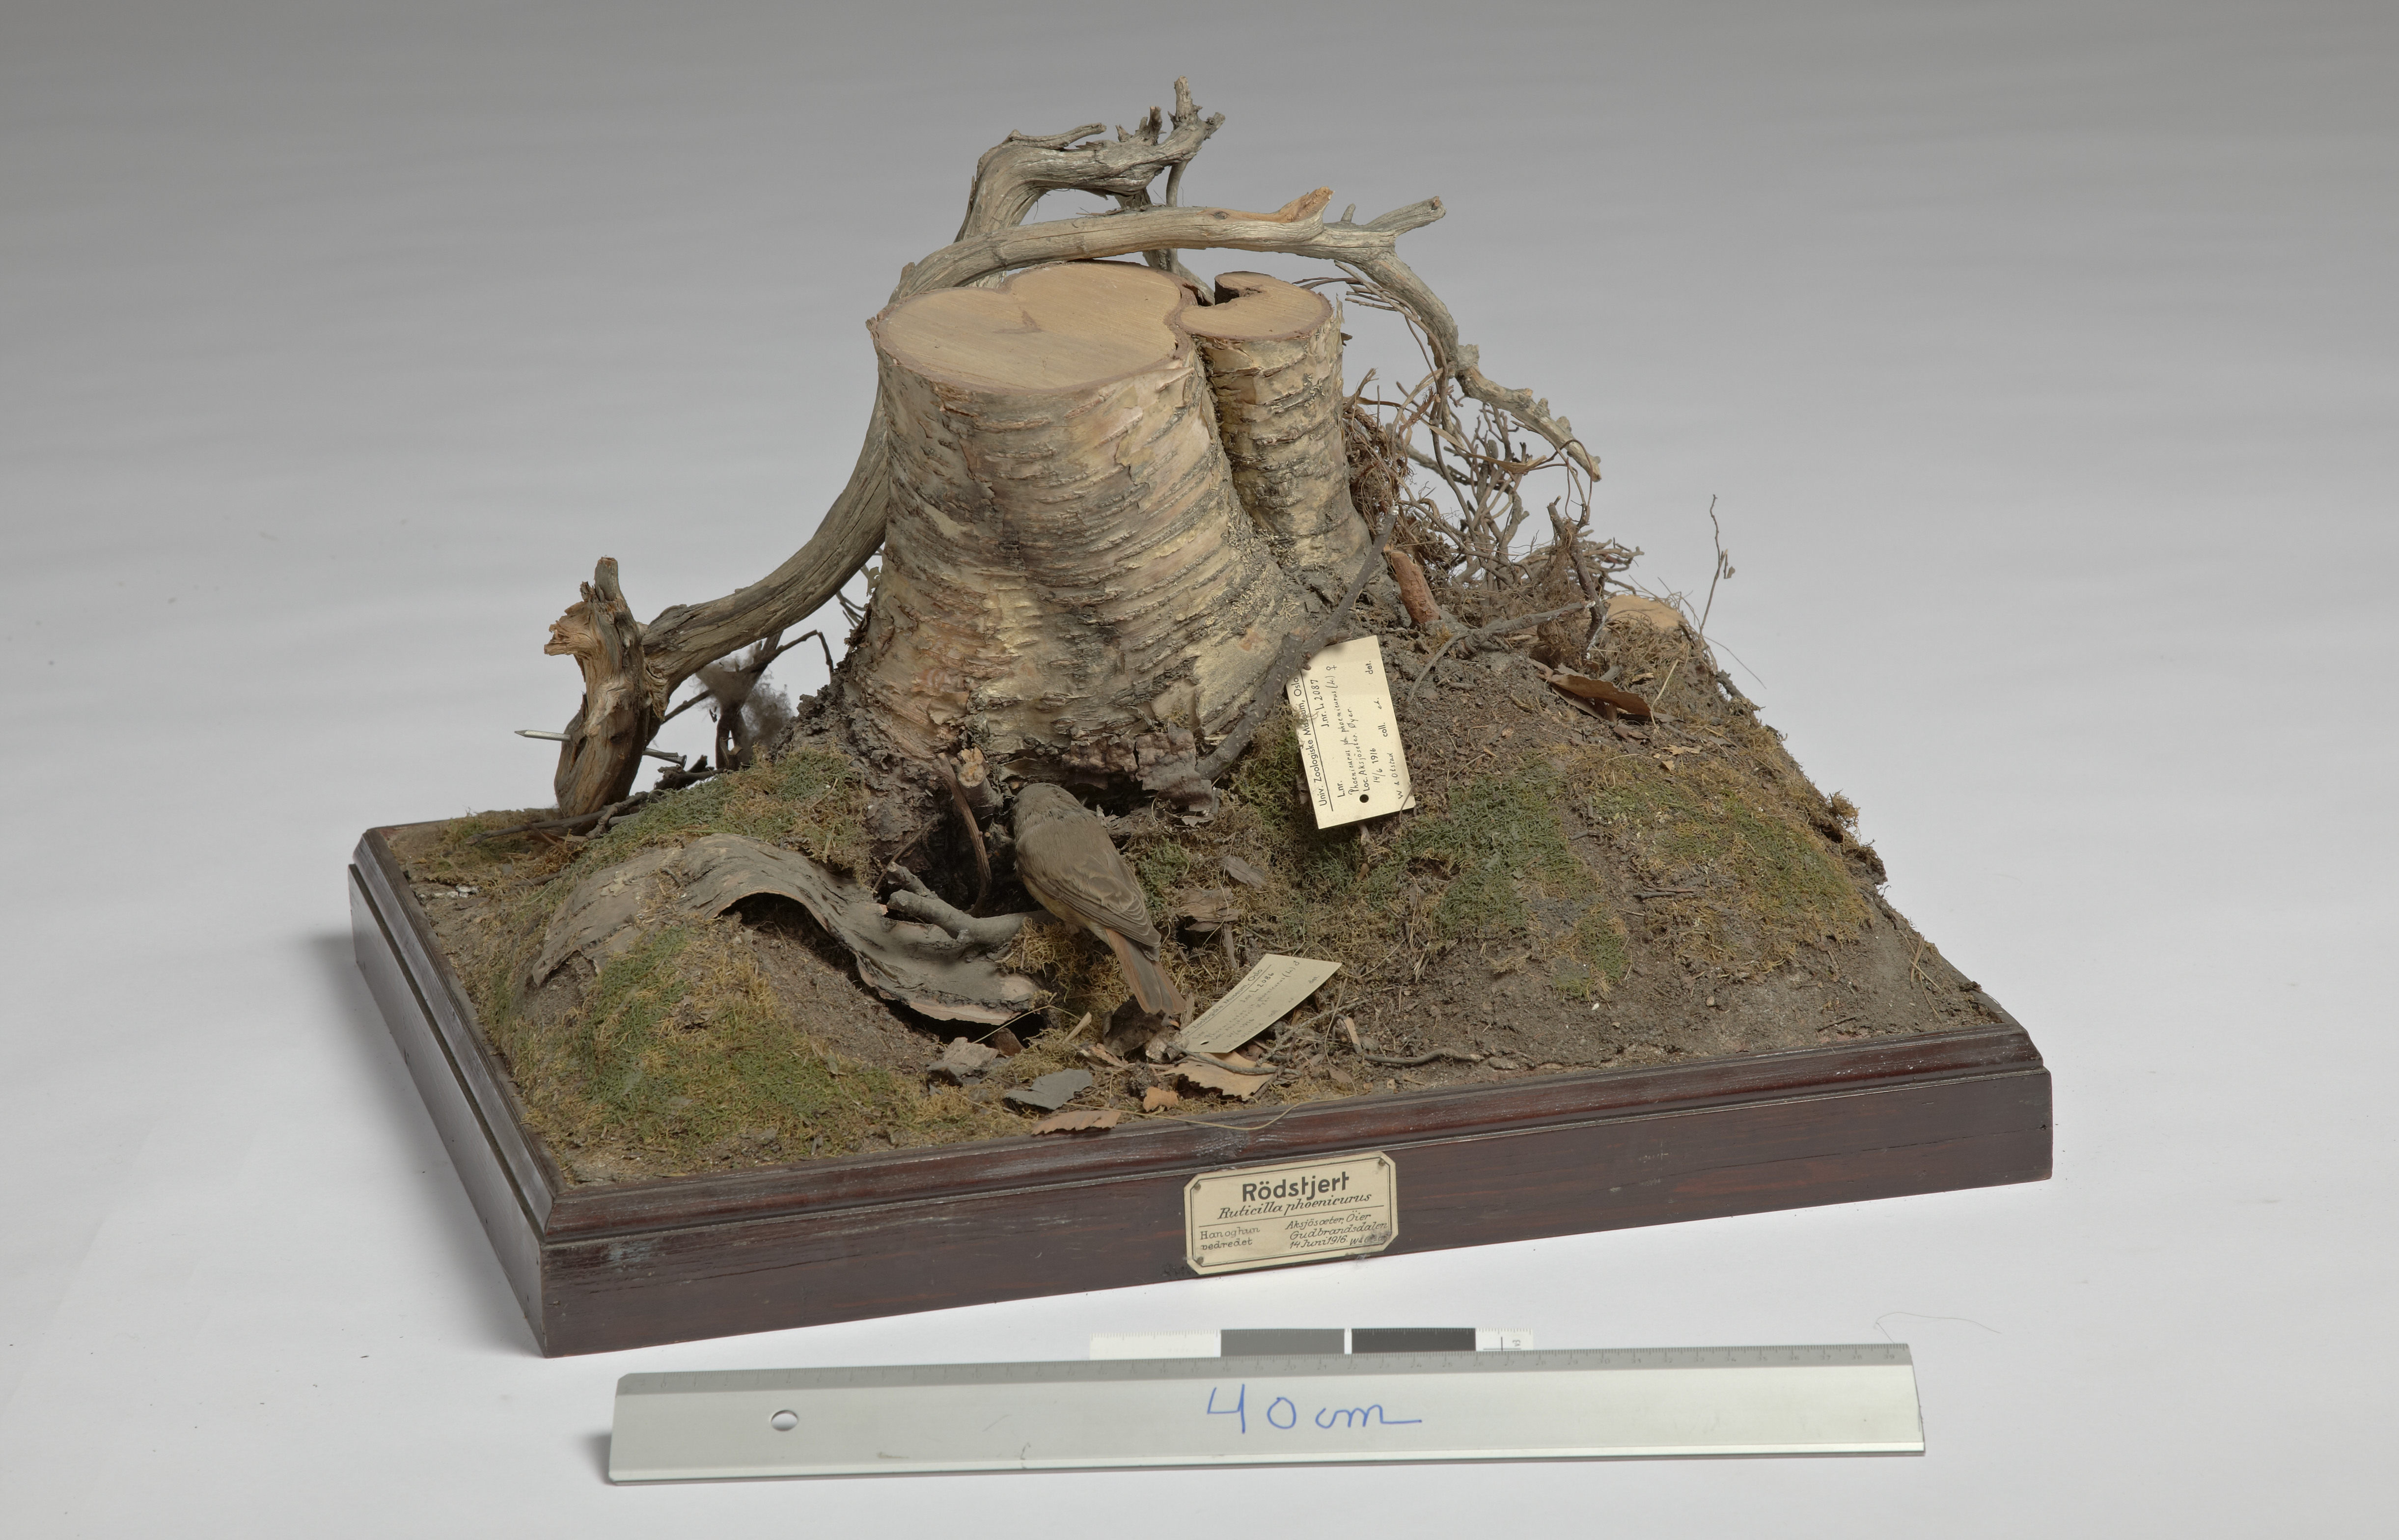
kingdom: Animalia
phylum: Chordata
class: Aves
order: Passeriformes
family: Muscicapidae
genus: Phoenicurus
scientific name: Phoenicurus phoenicurus
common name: Common redstart
